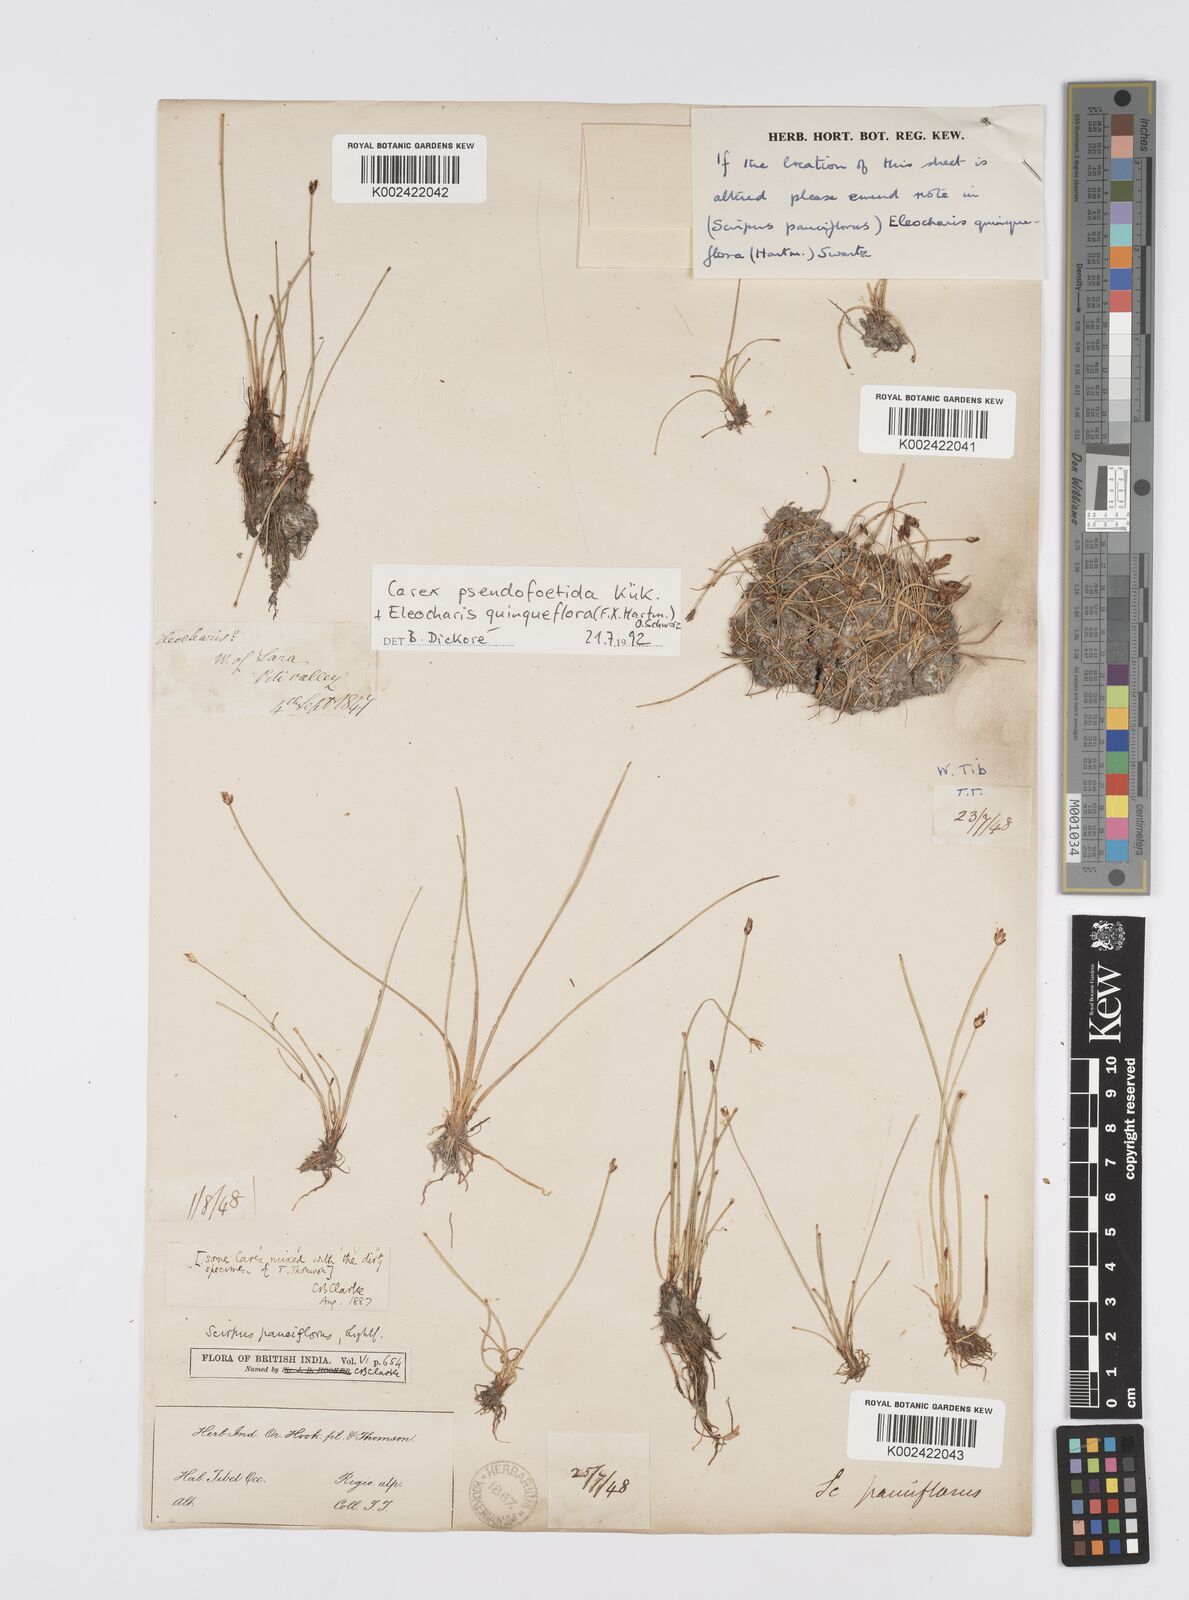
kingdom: Plantae
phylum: Tracheophyta
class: Liliopsida
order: Poales
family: Cyperaceae
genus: Eleocharis
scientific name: Eleocharis quinqueflora
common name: Few-flowered spike-rush
